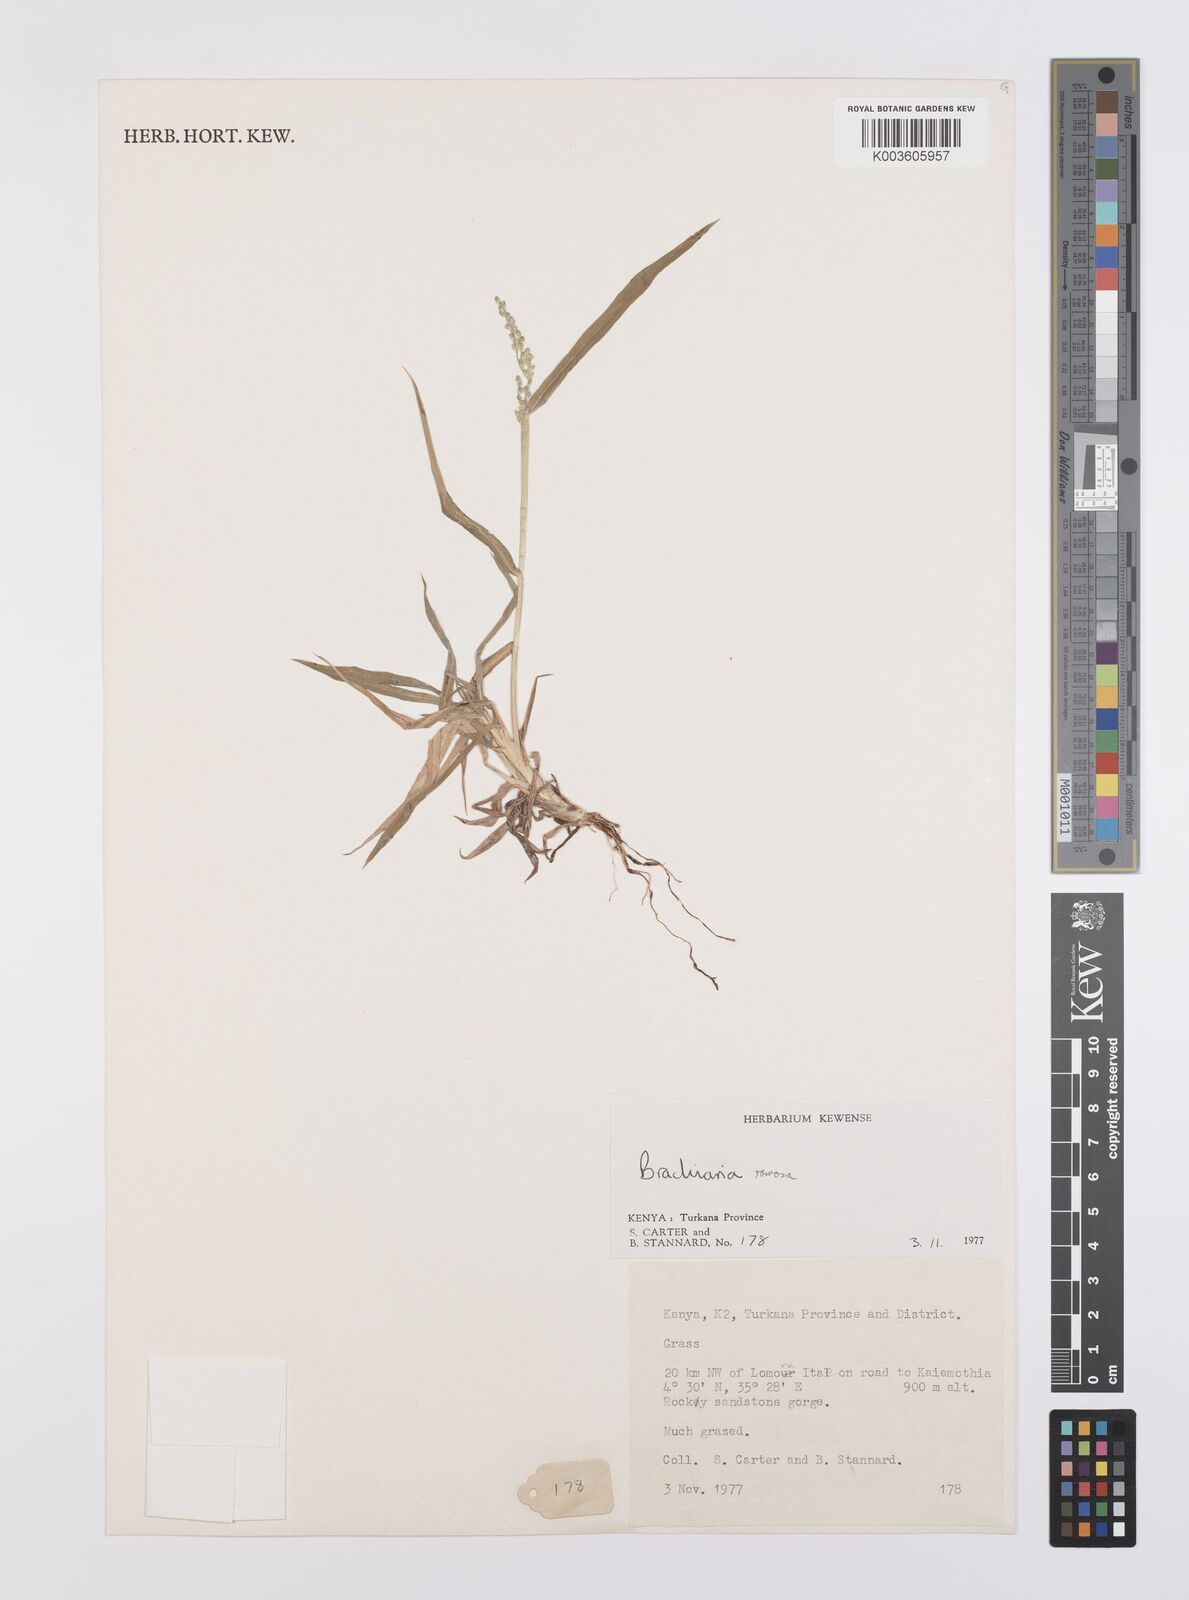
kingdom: Plantae
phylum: Tracheophyta
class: Liliopsida
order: Poales
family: Poaceae
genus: Urochloa
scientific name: Urochloa ramosa
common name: Browntop millet
